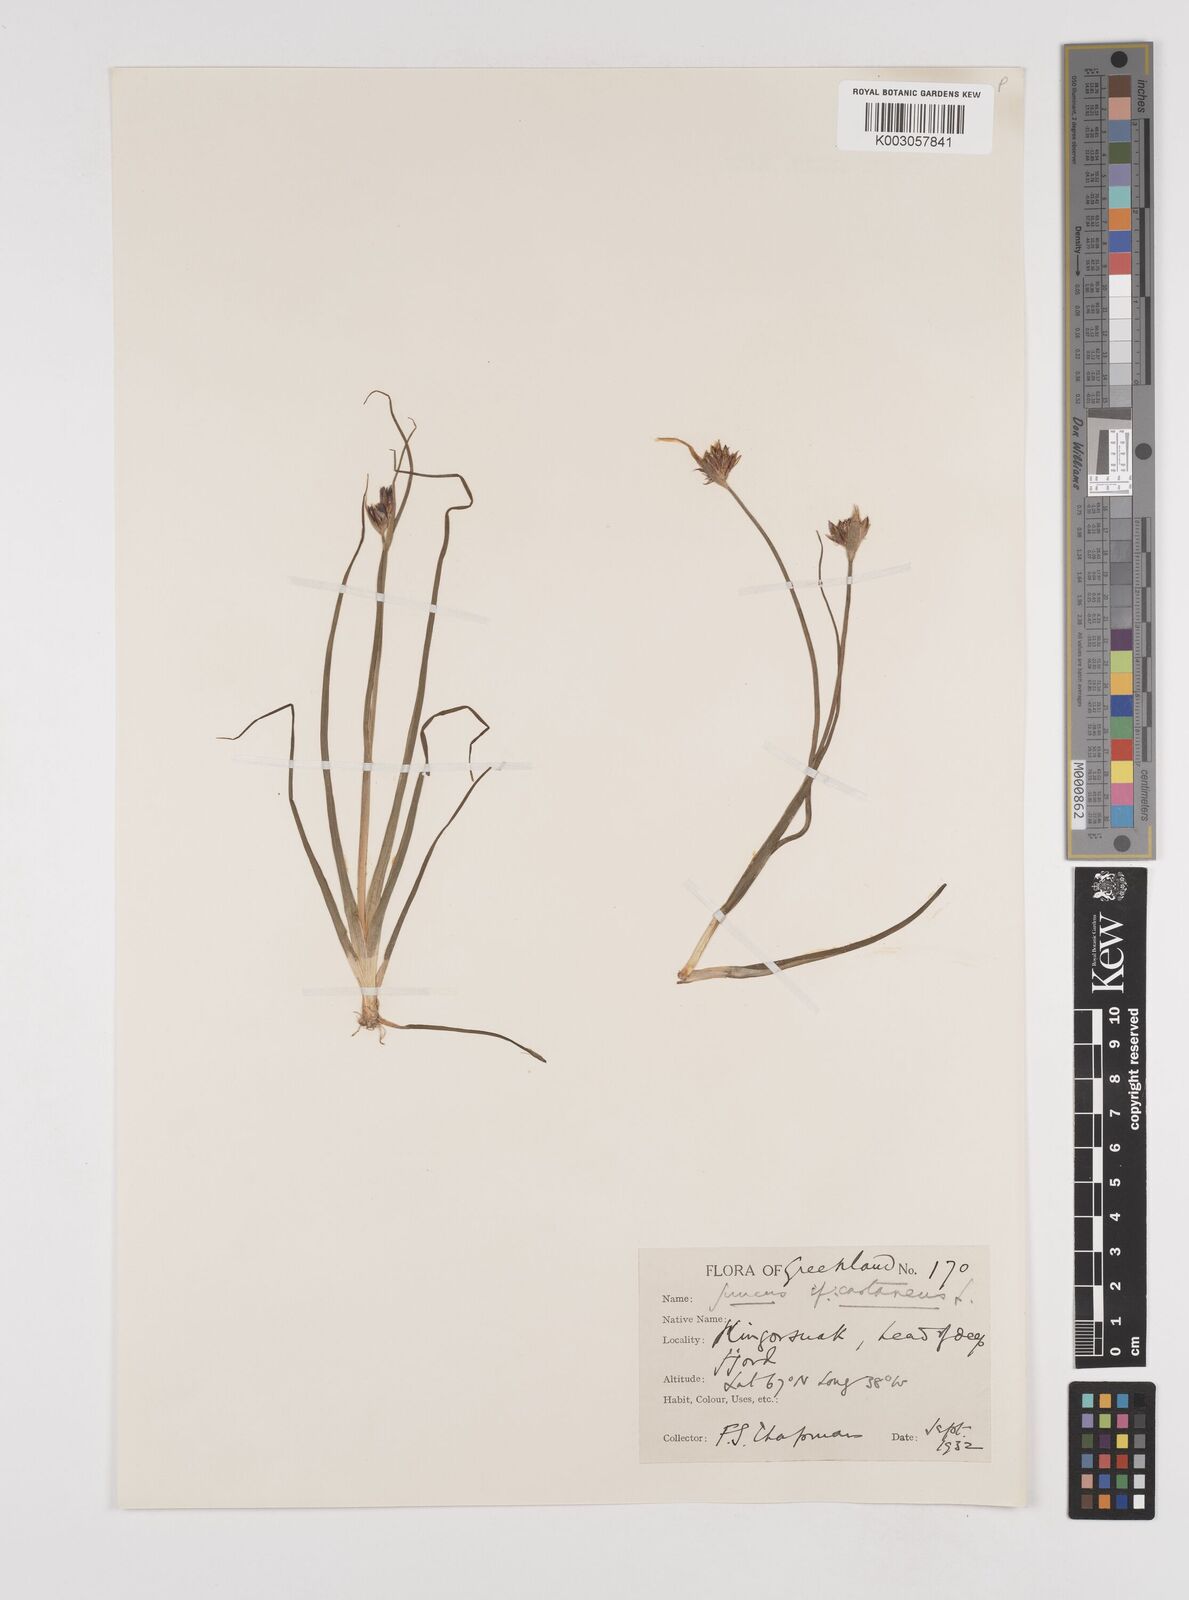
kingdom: Plantae
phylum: Tracheophyta
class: Liliopsida
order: Poales
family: Juncaceae
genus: Juncus
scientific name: Juncus castaneus
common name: Chestnut rush
